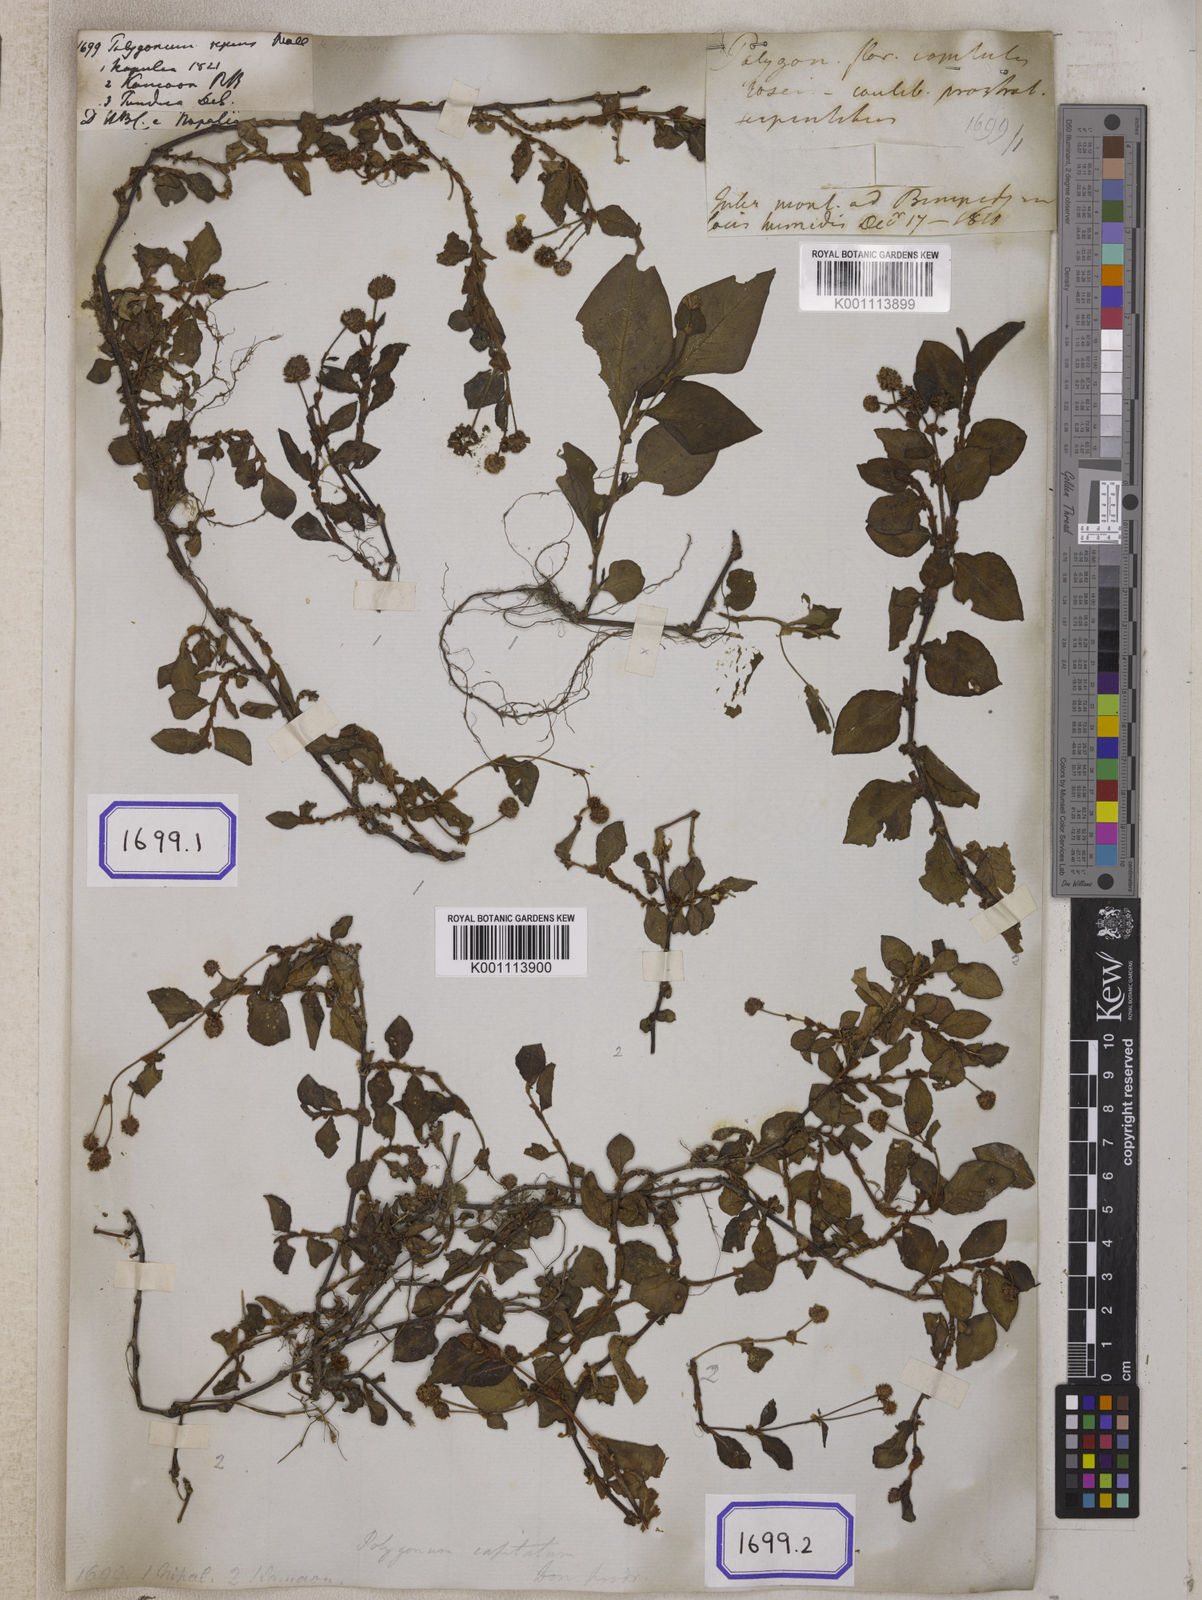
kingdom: Plantae
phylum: Tracheophyta
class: Magnoliopsida
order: Caryophyllales
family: Polygonaceae
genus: Polygonum
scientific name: Polygonum
